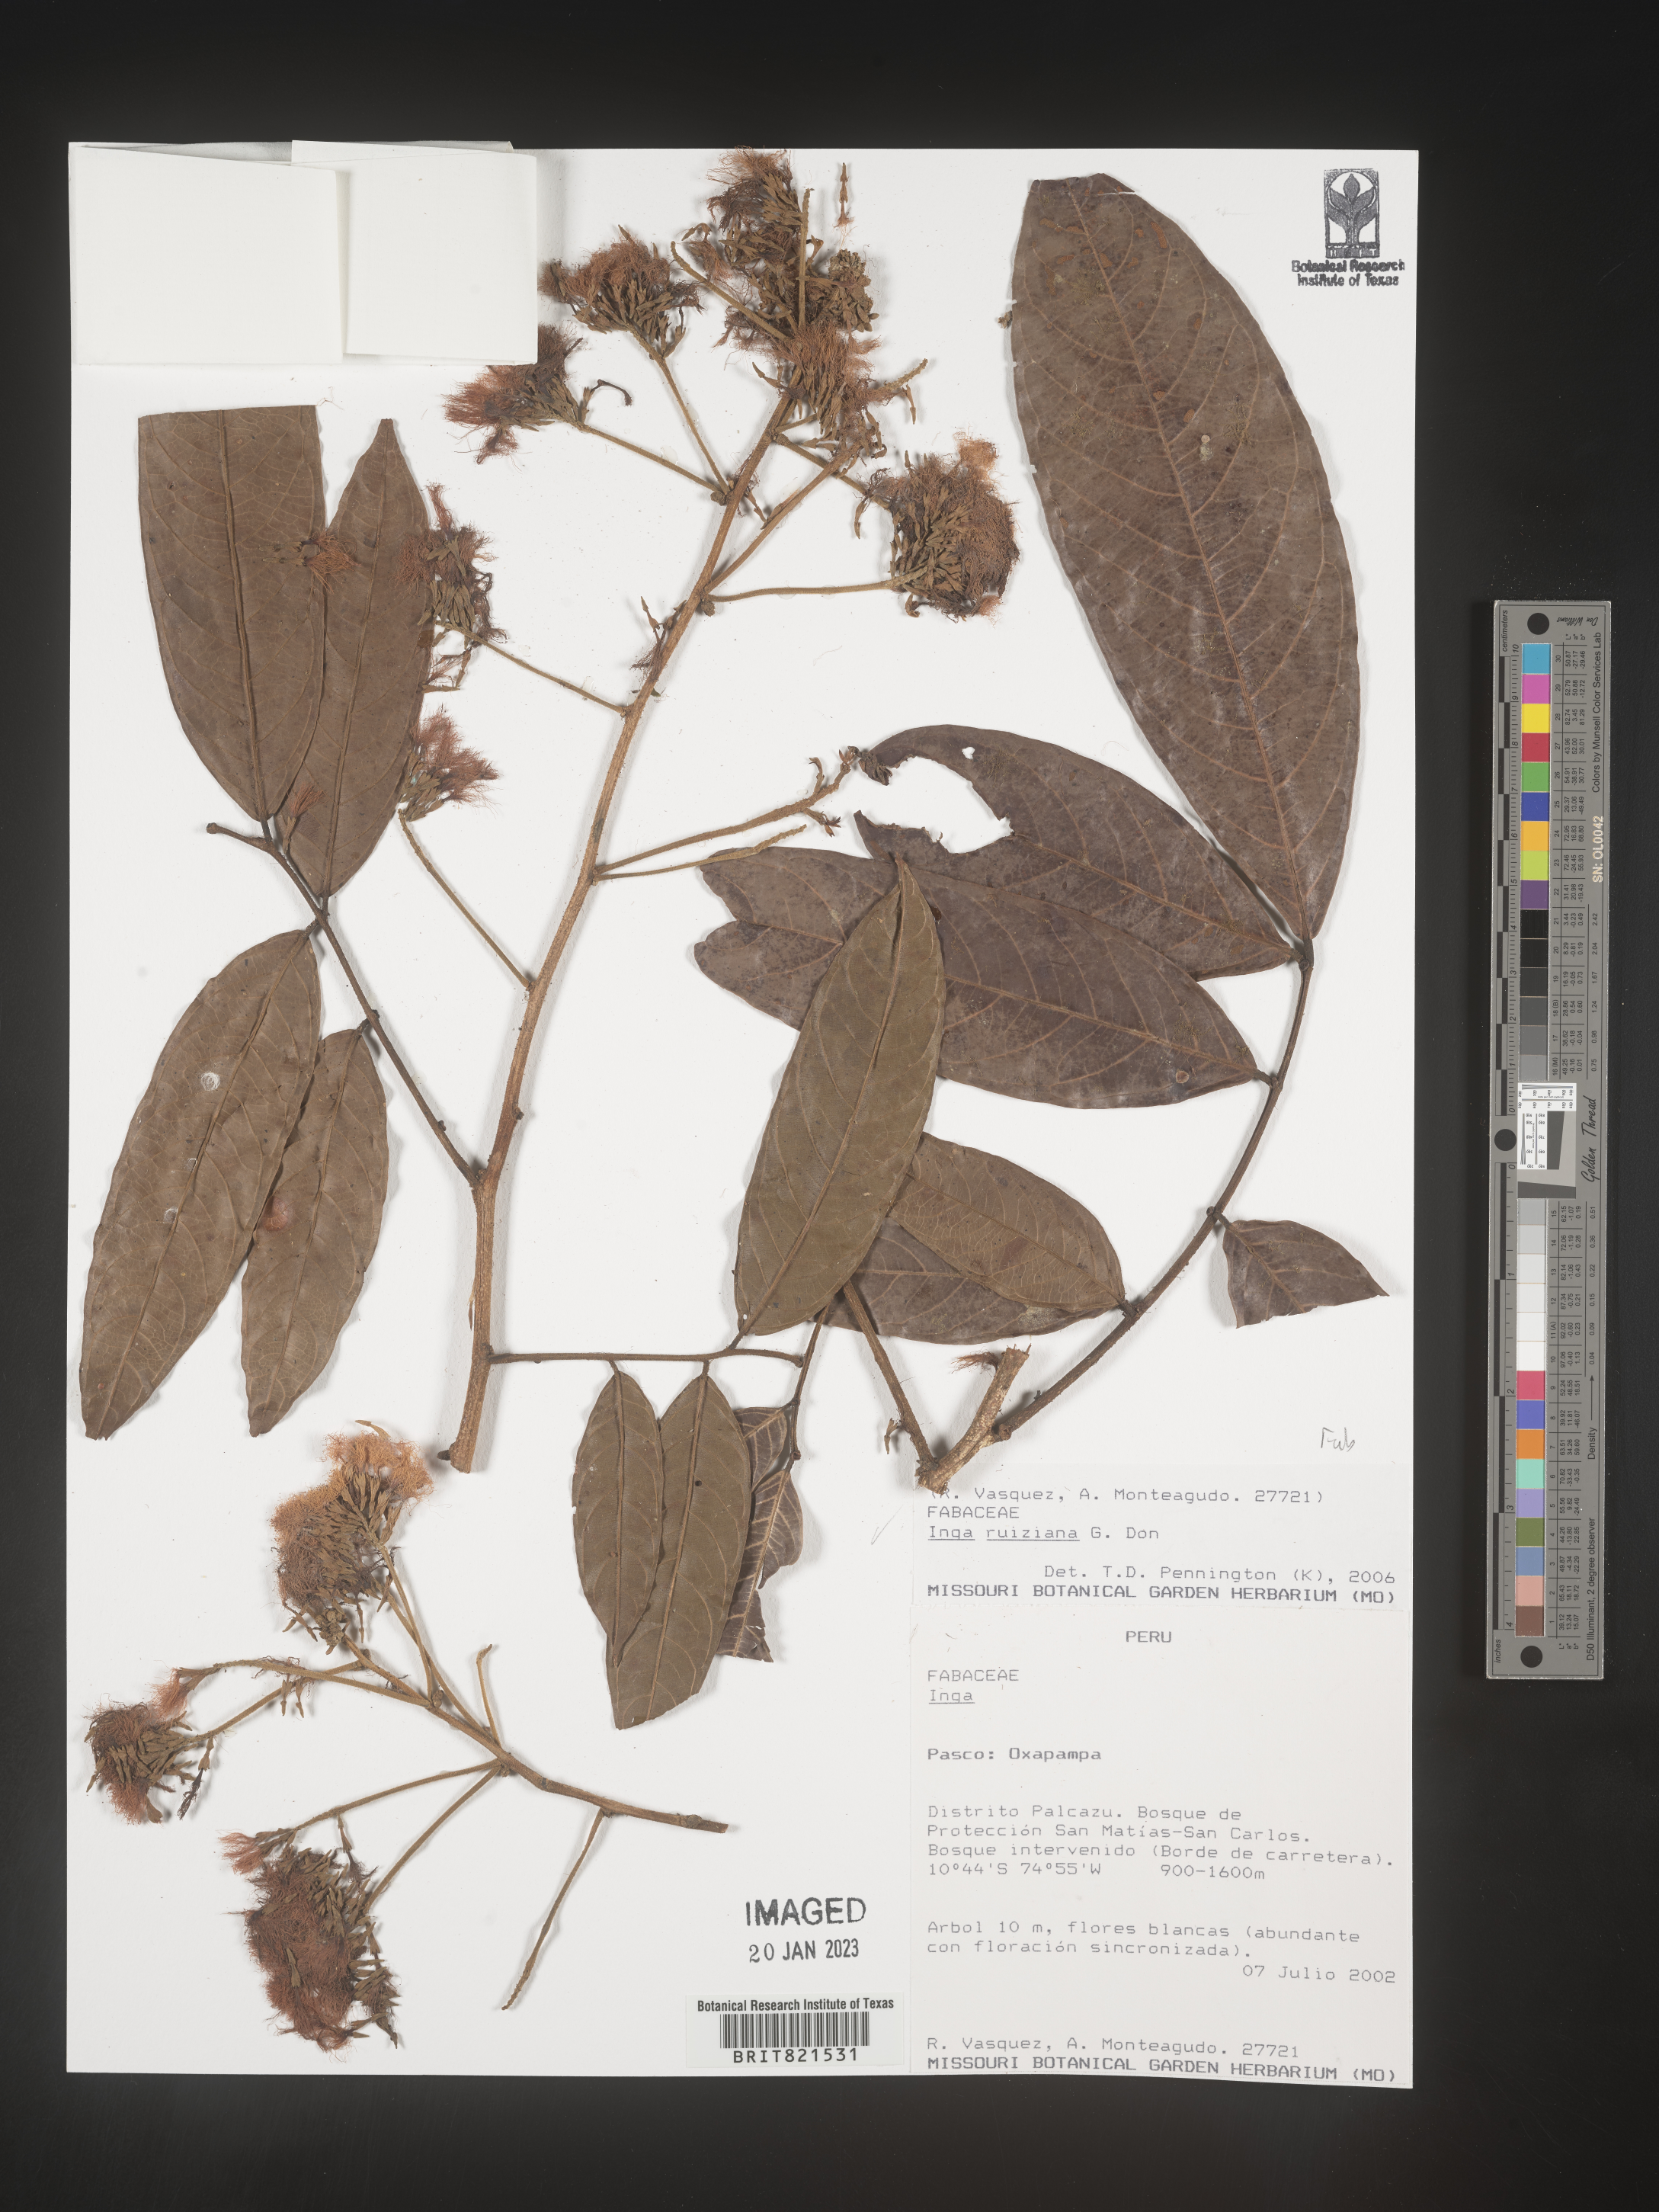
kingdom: Plantae
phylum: Tracheophyta
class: Magnoliopsida
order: Fabales
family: Fabaceae
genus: Inga
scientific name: Inga
